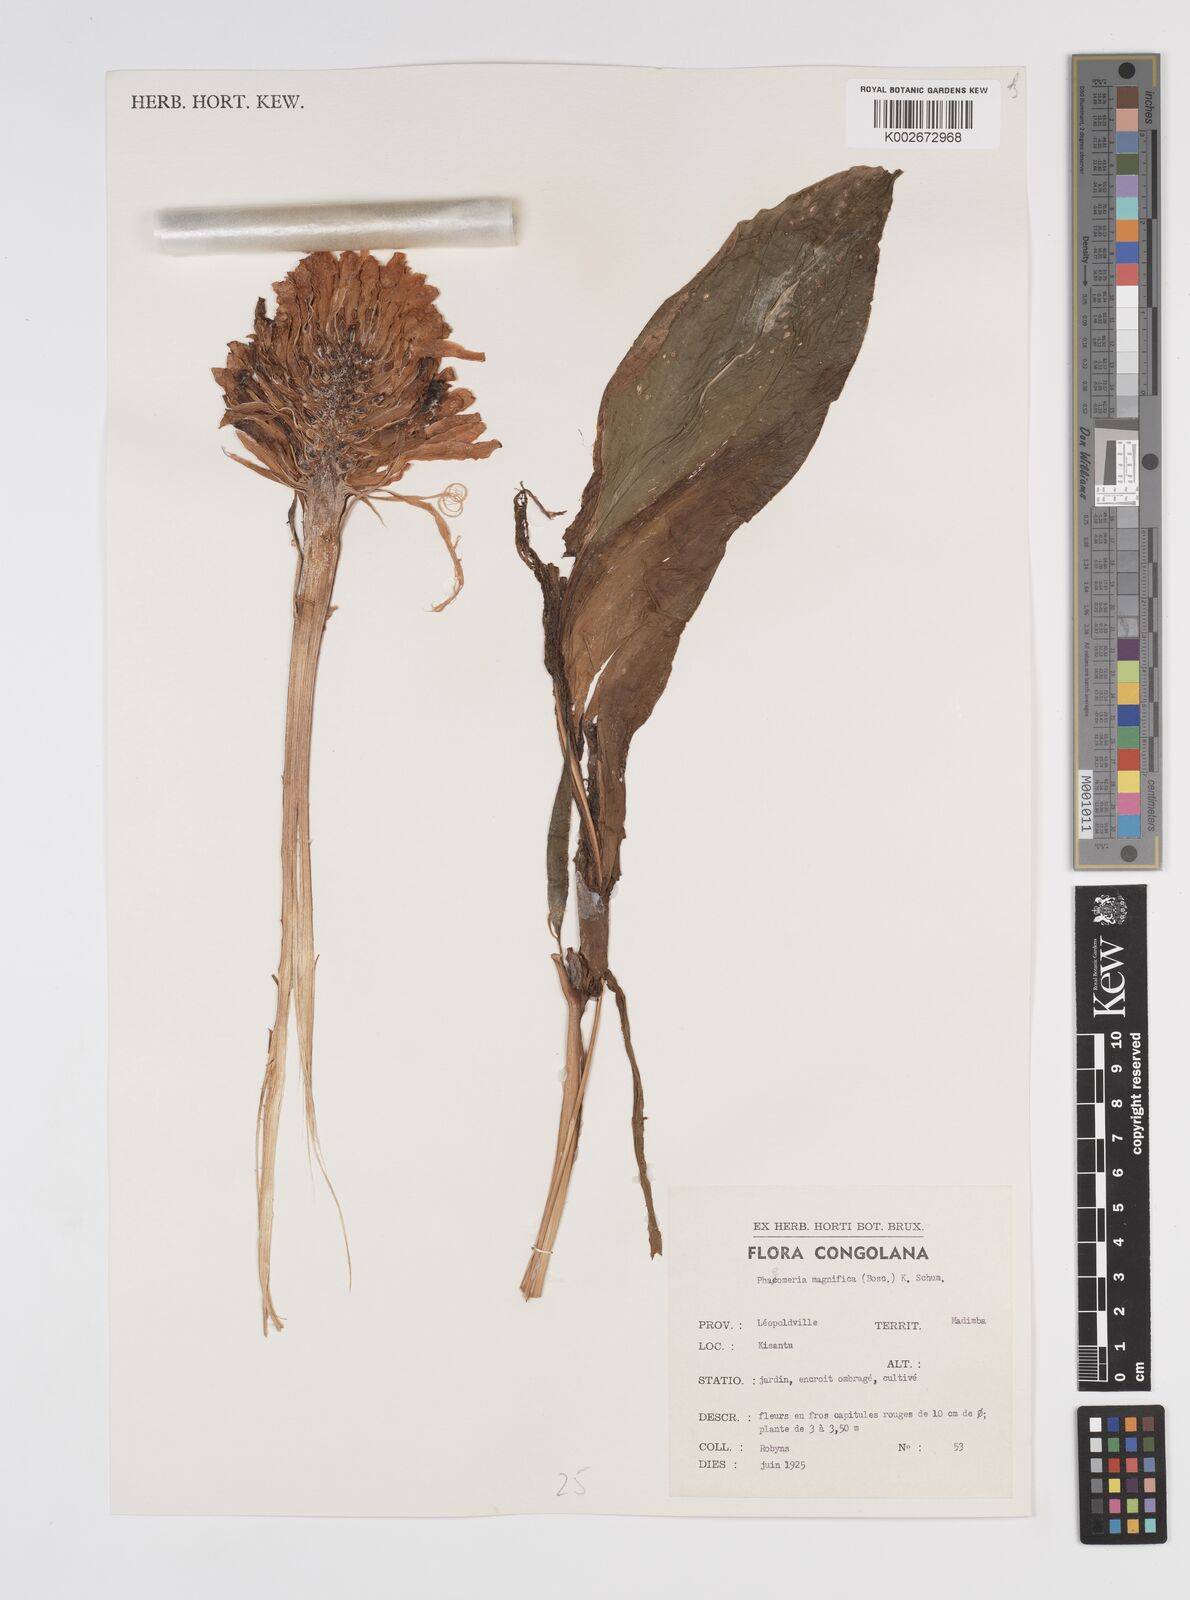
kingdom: Plantae
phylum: Tracheophyta
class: Liliopsida
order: Zingiberales
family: Zingiberaceae
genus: Etlingera
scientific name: Etlingera elatior
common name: Philippine waxflower
